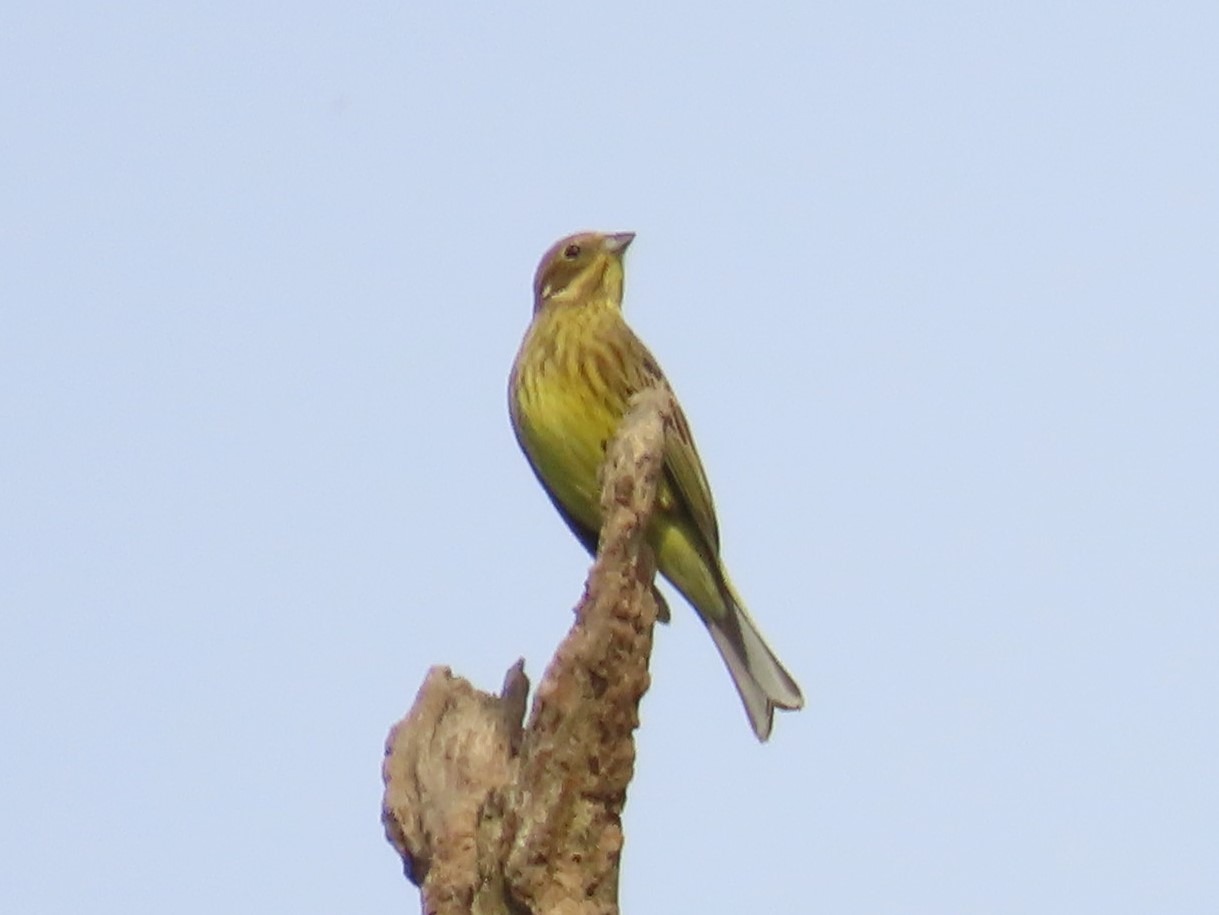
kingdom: Animalia
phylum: Chordata
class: Aves
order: Passeriformes
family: Emberizidae
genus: Emberiza
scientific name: Emberiza citrinella
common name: Gulspurv
